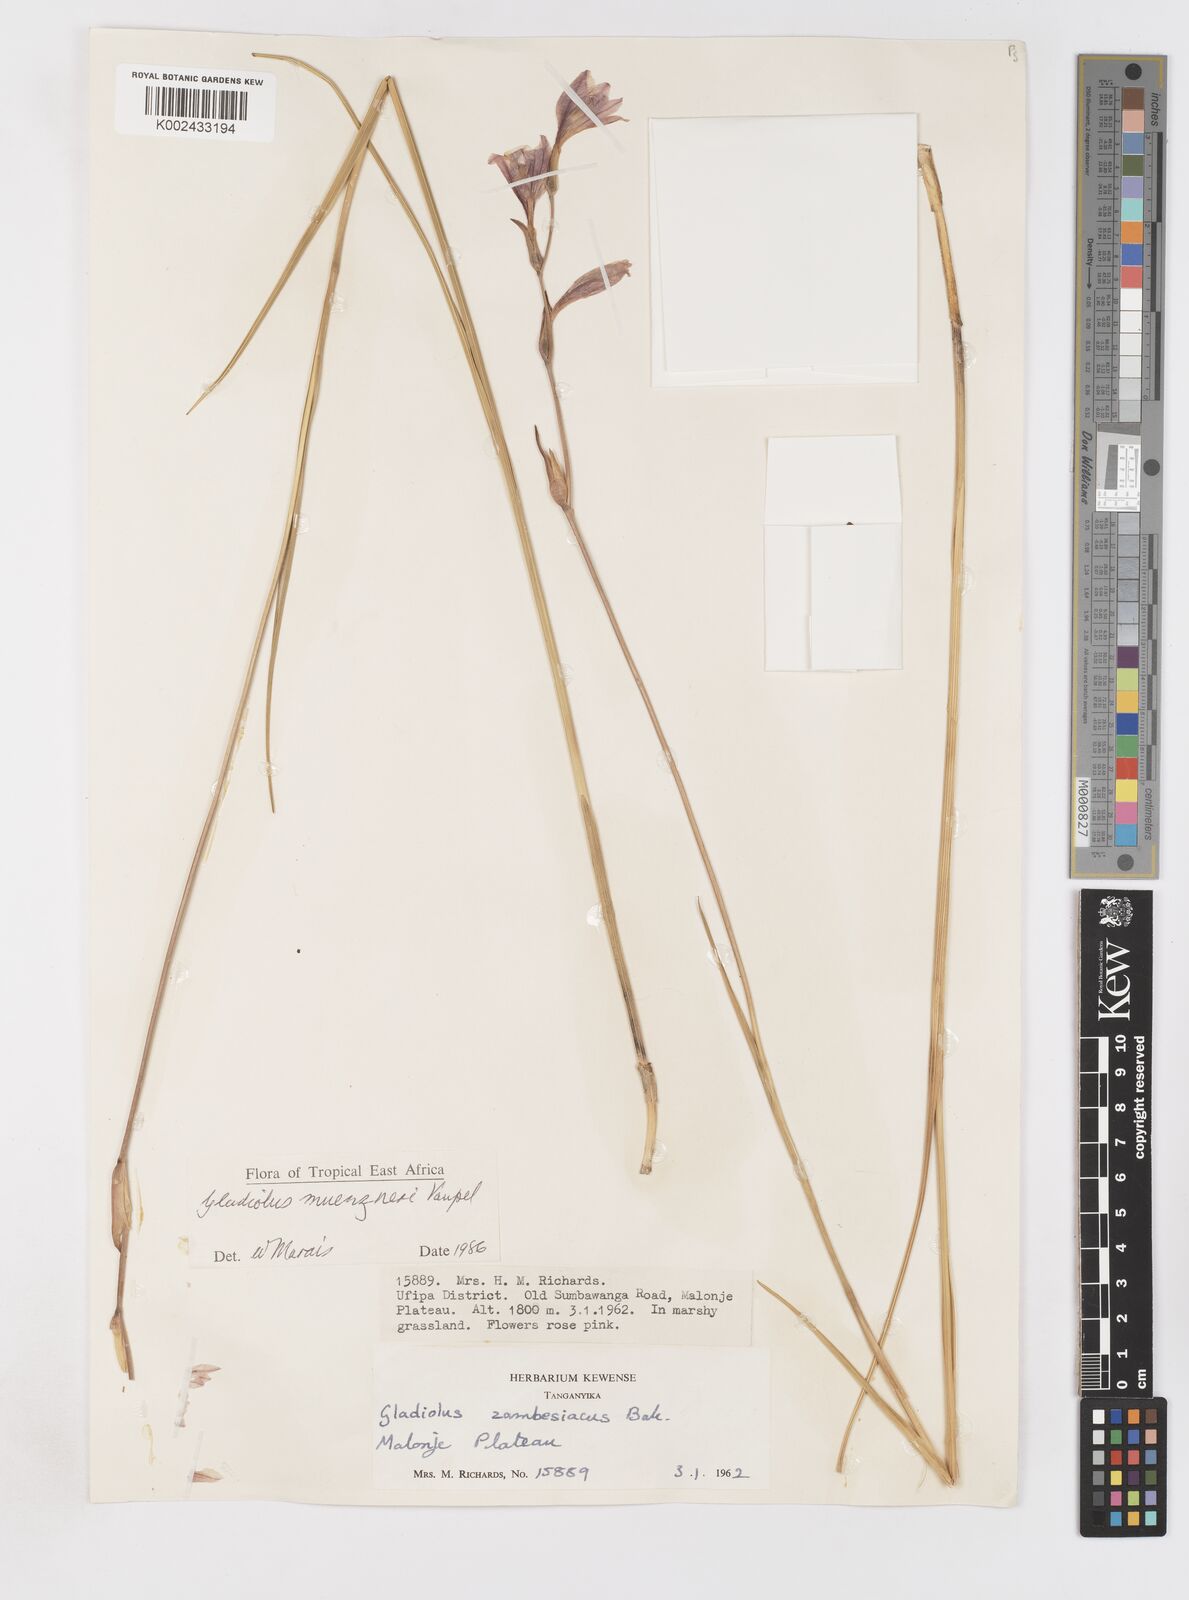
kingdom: Plantae
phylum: Tracheophyta
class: Liliopsida
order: Asparagales
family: Iridaceae
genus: Gladiolus
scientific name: Gladiolus muenzneri
